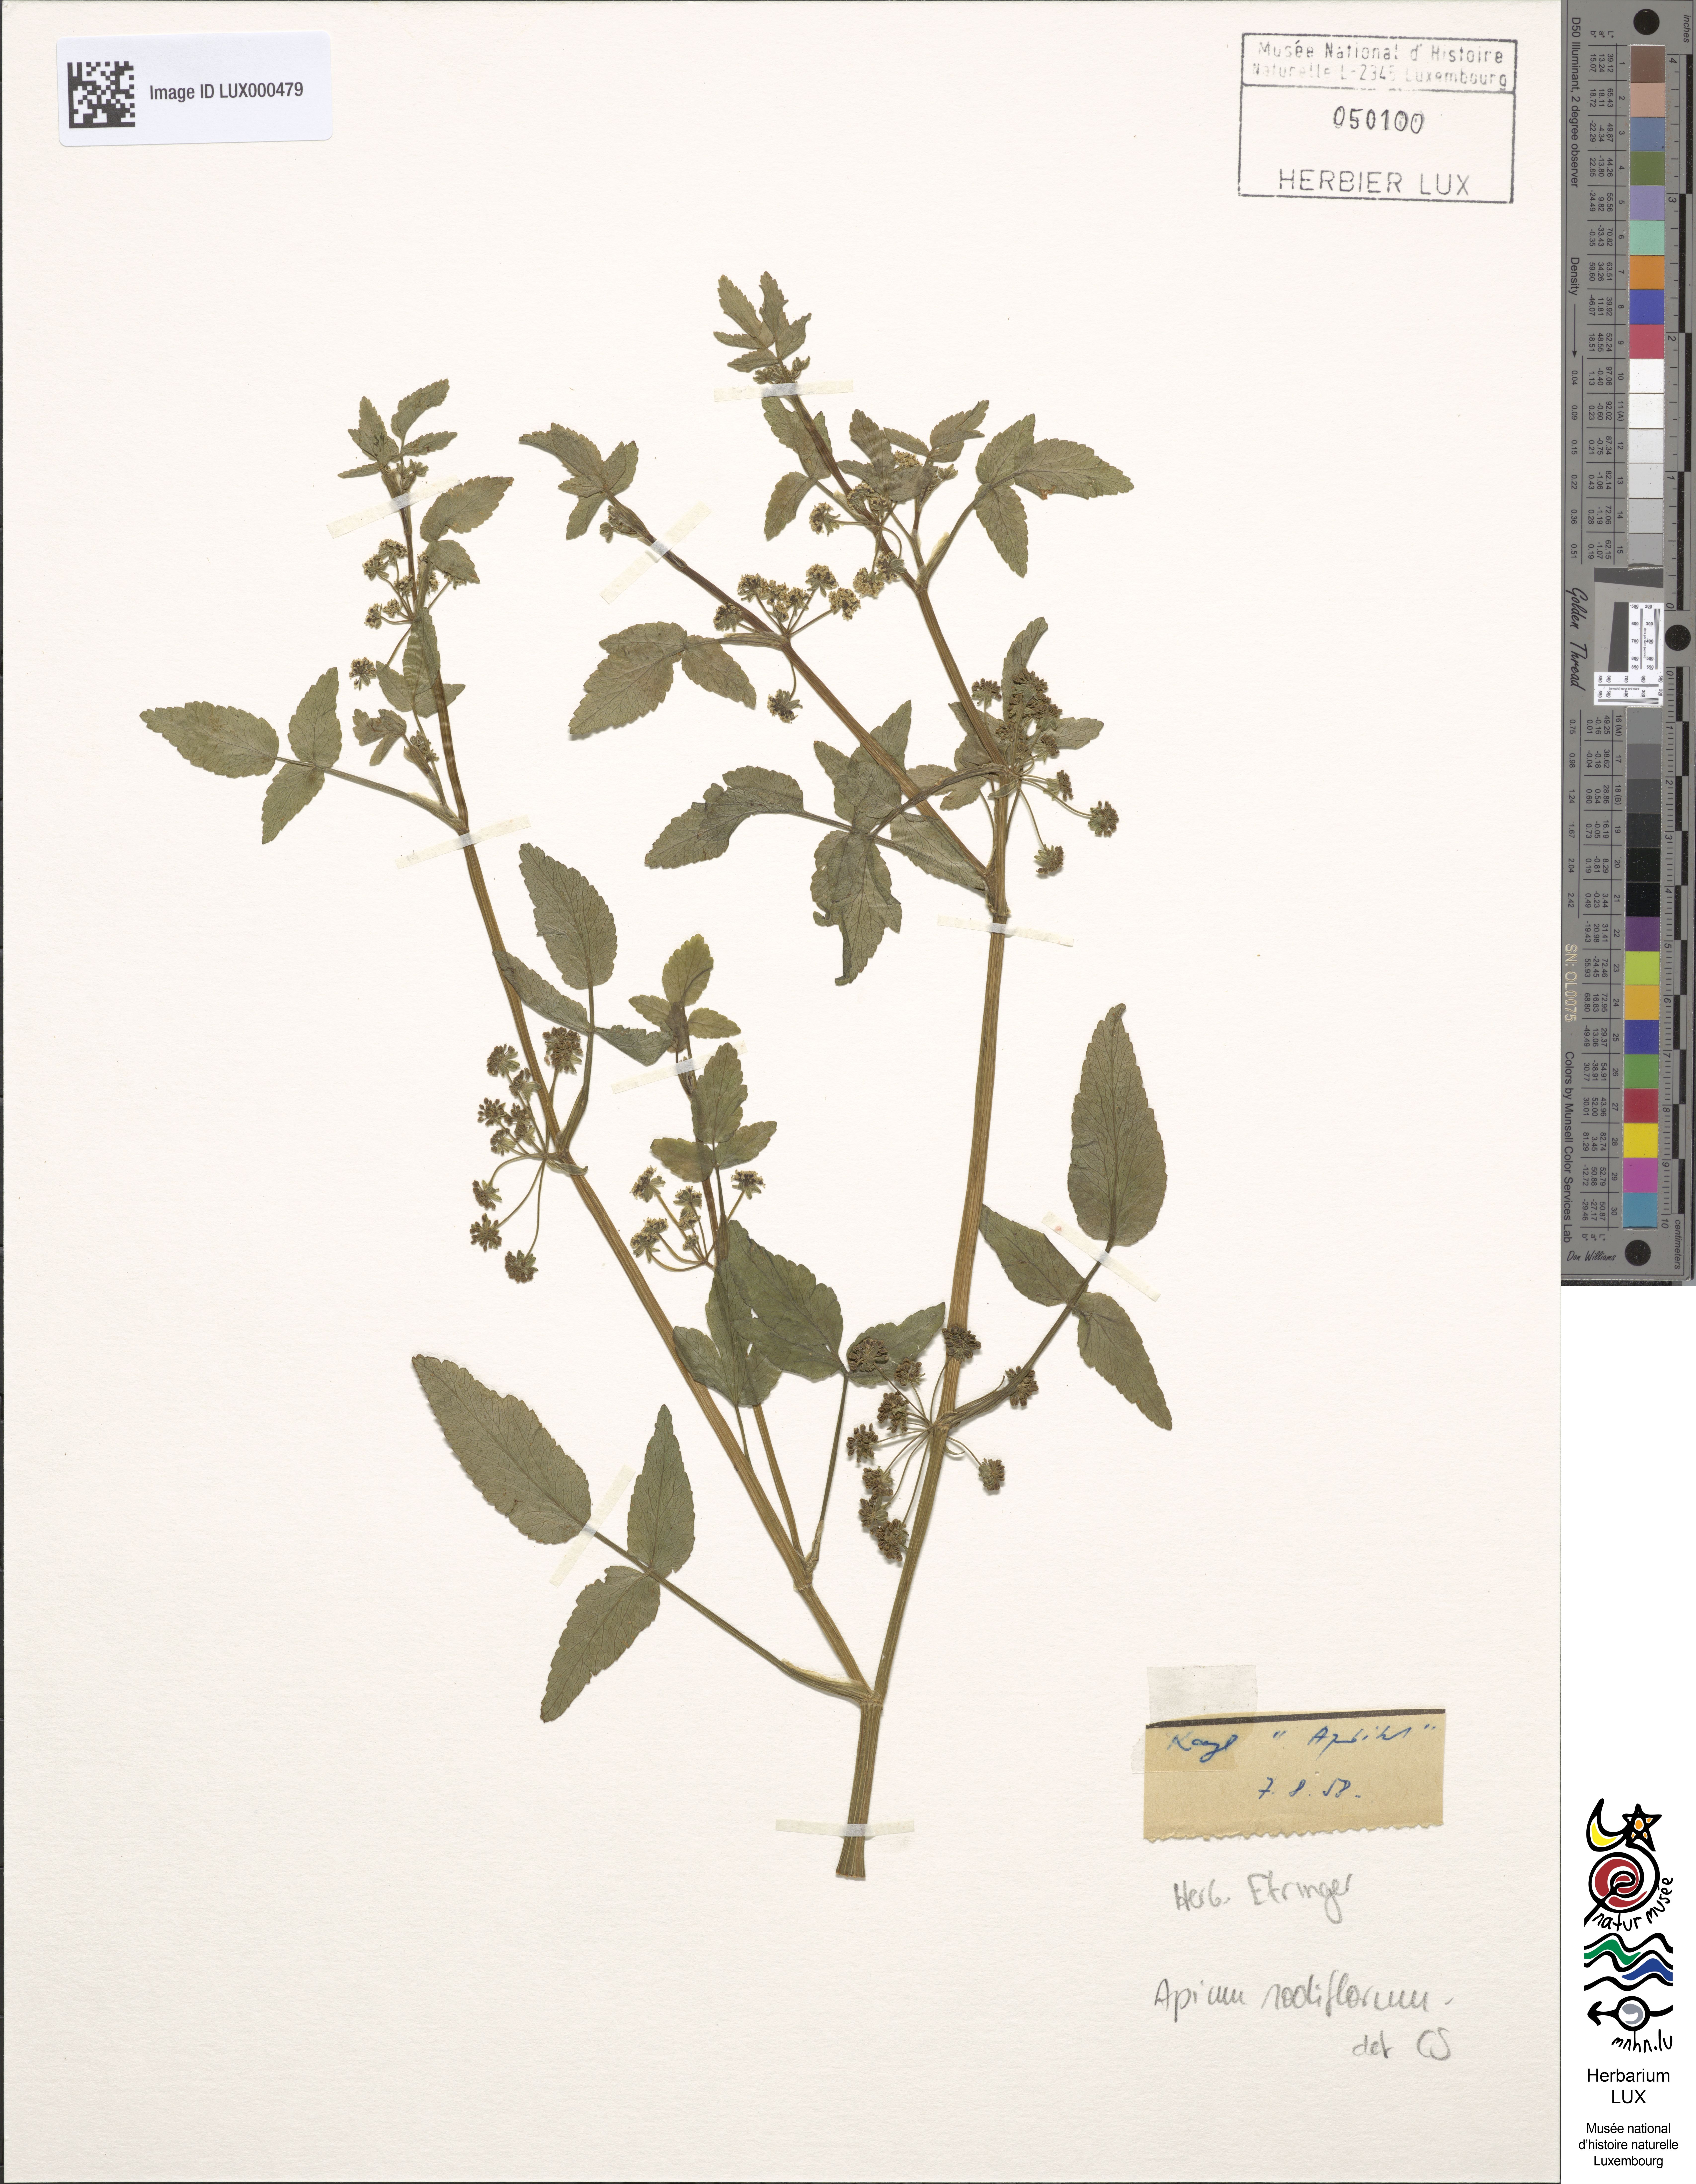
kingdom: Plantae
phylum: Tracheophyta
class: Magnoliopsida
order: Apiales
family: Apiaceae
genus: Helosciadium
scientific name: Helosciadium nodiflorum
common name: Fool's-watercress
